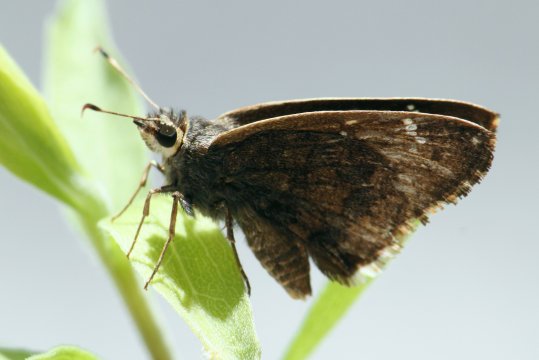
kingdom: Animalia
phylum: Arthropoda
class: Insecta
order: Lepidoptera
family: Hesperiidae
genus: Caicella
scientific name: Caicella caicus
